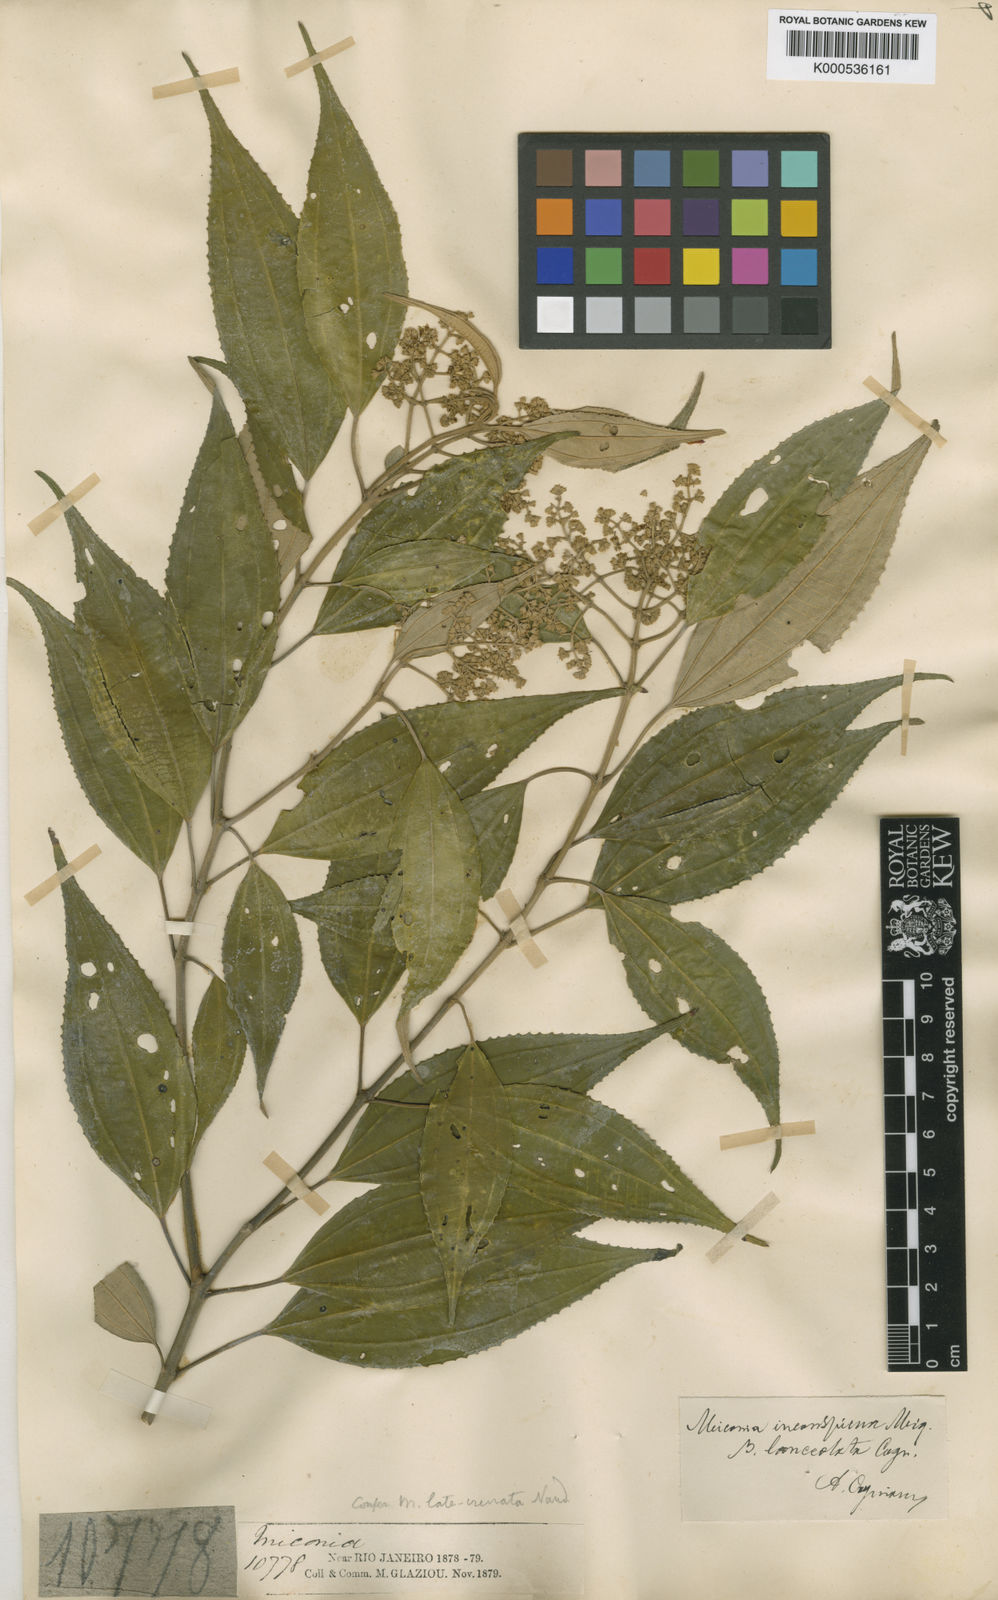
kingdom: Plantae
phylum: Tracheophyta
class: Magnoliopsida
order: Myrtales
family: Melastomataceae
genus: Miconia
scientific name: Miconia inconspicua
